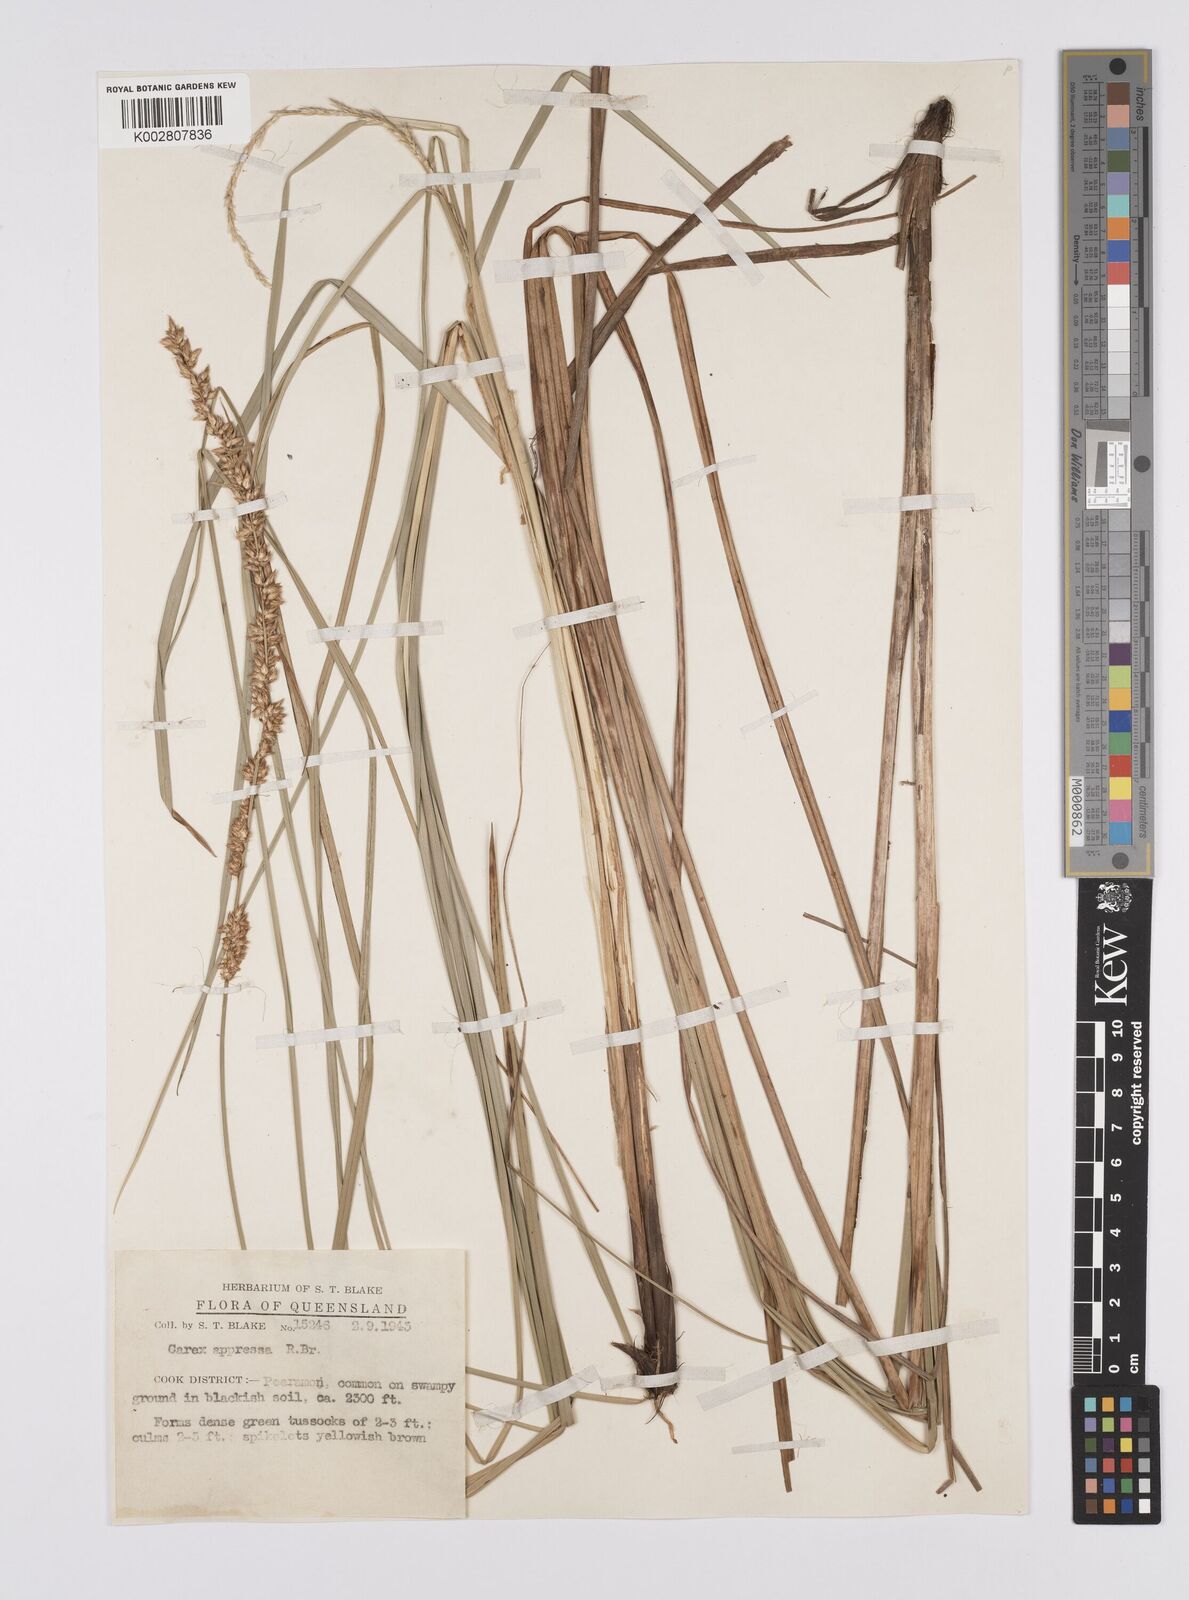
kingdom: Plantae
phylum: Tracheophyta
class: Liliopsida
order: Poales
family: Cyperaceae
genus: Carex
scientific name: Carex appressa
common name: Tussock sedge
